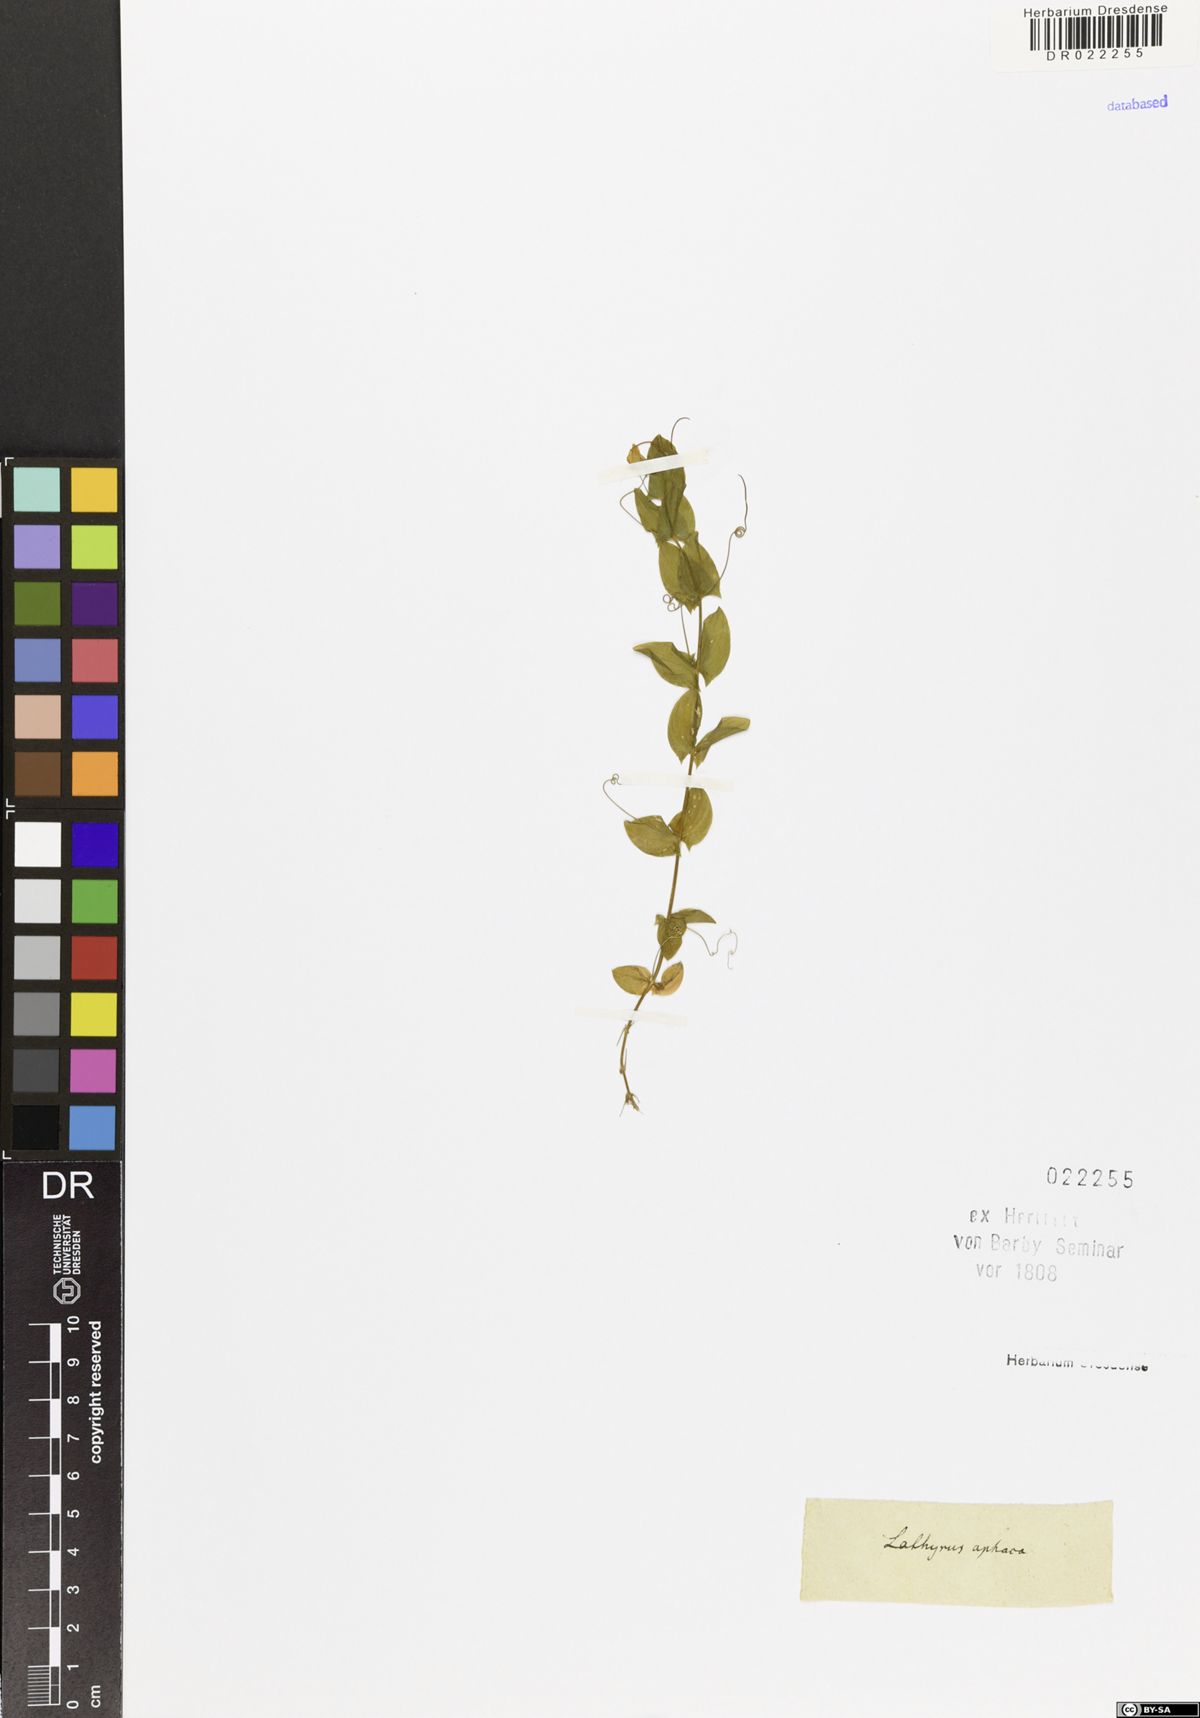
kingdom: Plantae
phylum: Tracheophyta
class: Magnoliopsida
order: Fabales
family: Fabaceae
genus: Lathyrus
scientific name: Lathyrus aphaca
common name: Yellow vetchling
